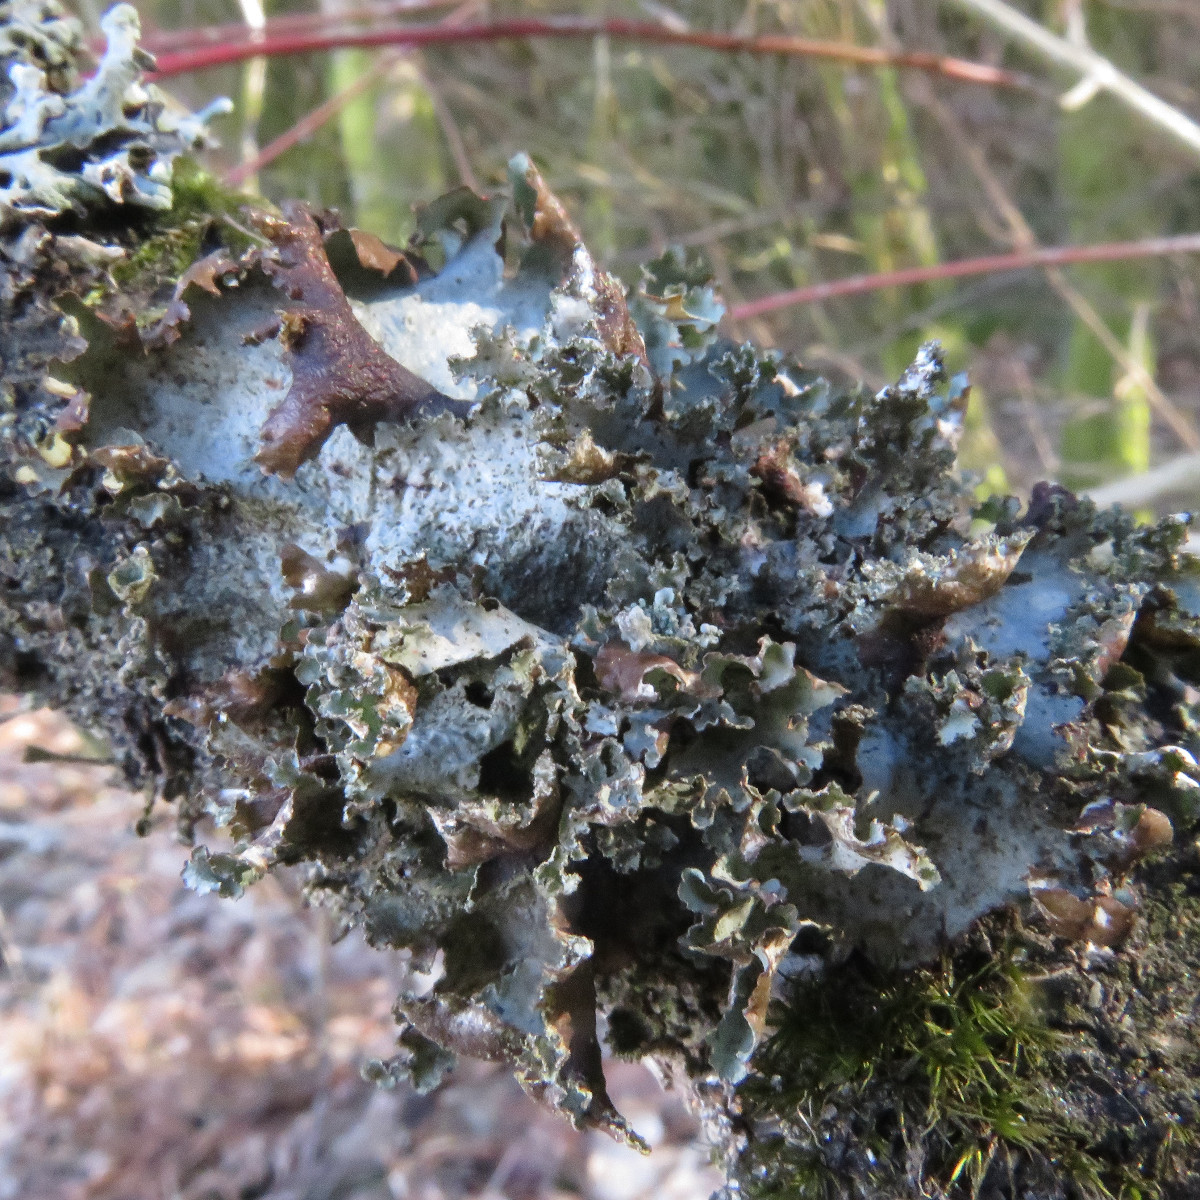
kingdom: Fungi
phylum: Ascomycota
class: Lecanoromycetes
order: Lecanorales
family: Parmeliaceae
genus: Platismatia
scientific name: Platismatia glauca
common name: blågrå papirlav
